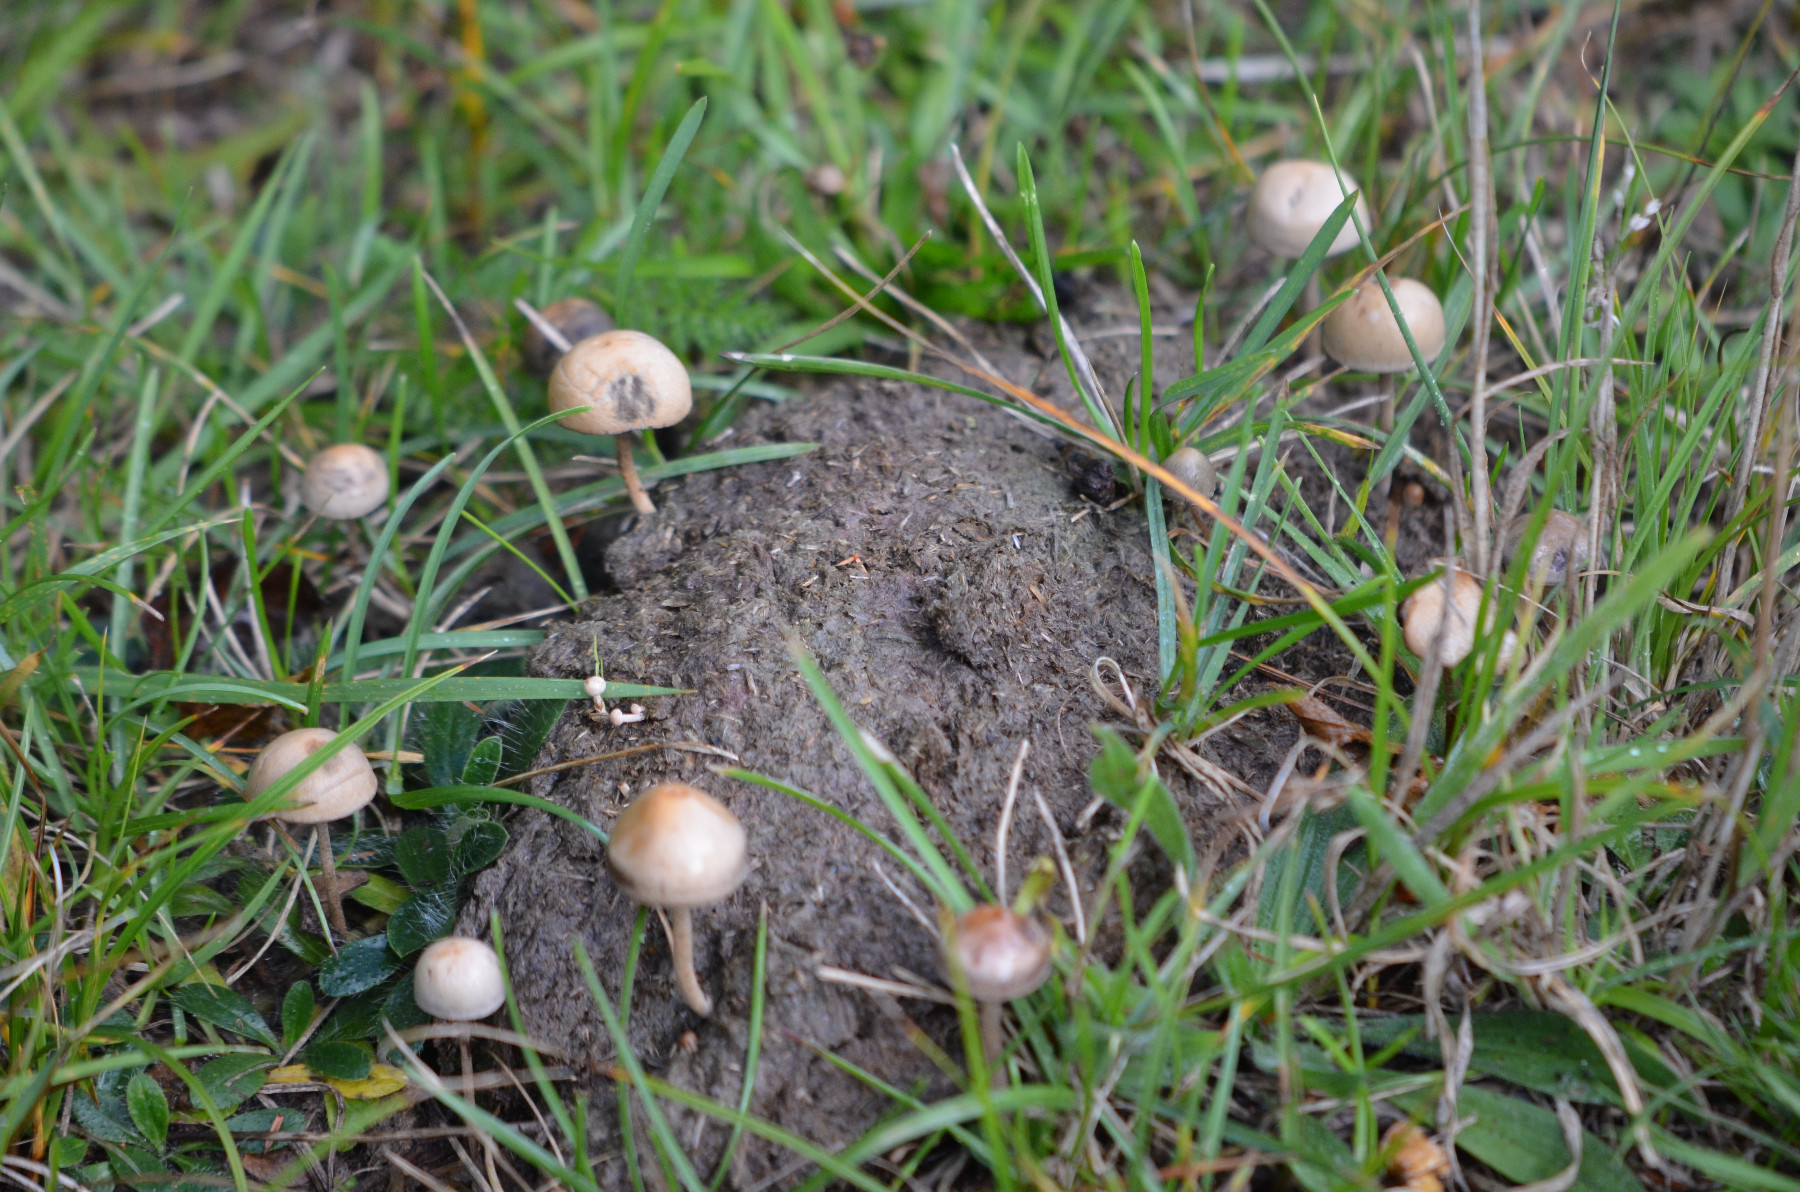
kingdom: Fungi
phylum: Basidiomycota
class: Agaricomycetes
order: Agaricales
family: Bolbitiaceae
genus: Panaeolus
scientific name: Panaeolus subfirmus
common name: fælled-glanshat
